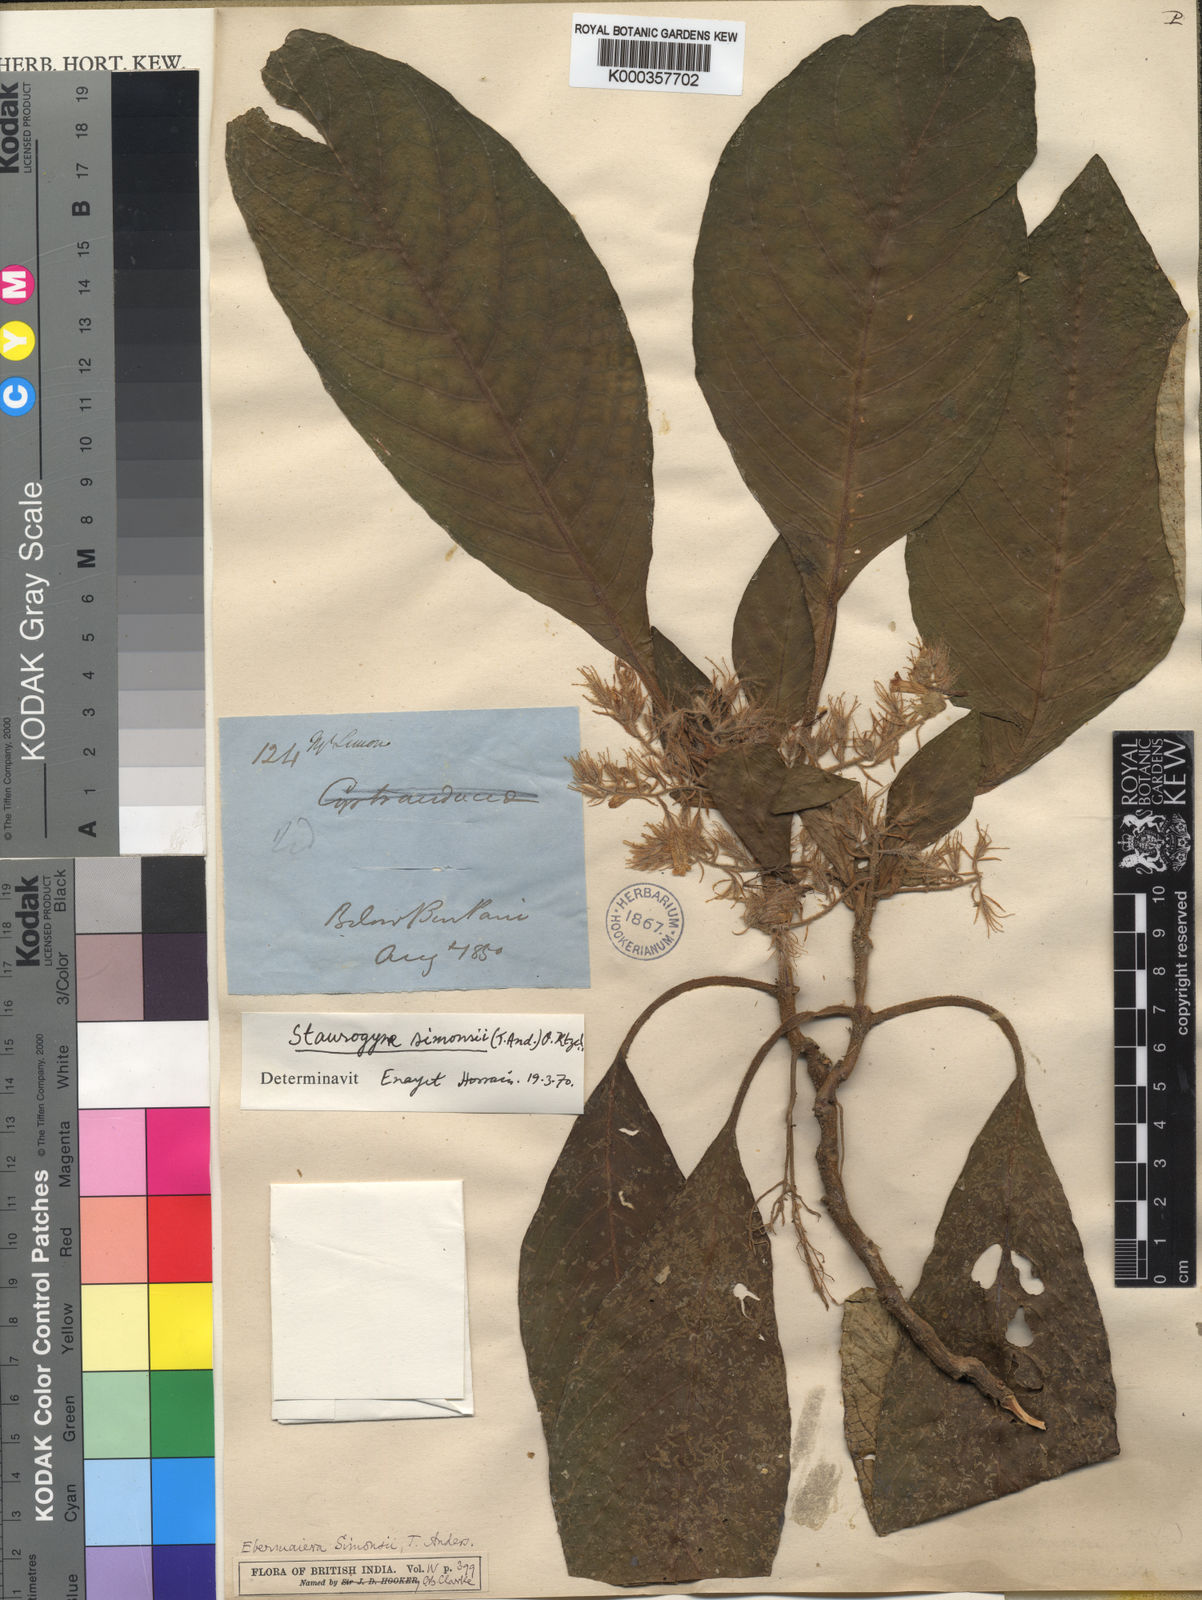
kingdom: Plantae
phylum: Tracheophyta
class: Magnoliopsida
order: Lamiales
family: Acanthaceae
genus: Staurogyne
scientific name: Staurogyne simonsii
